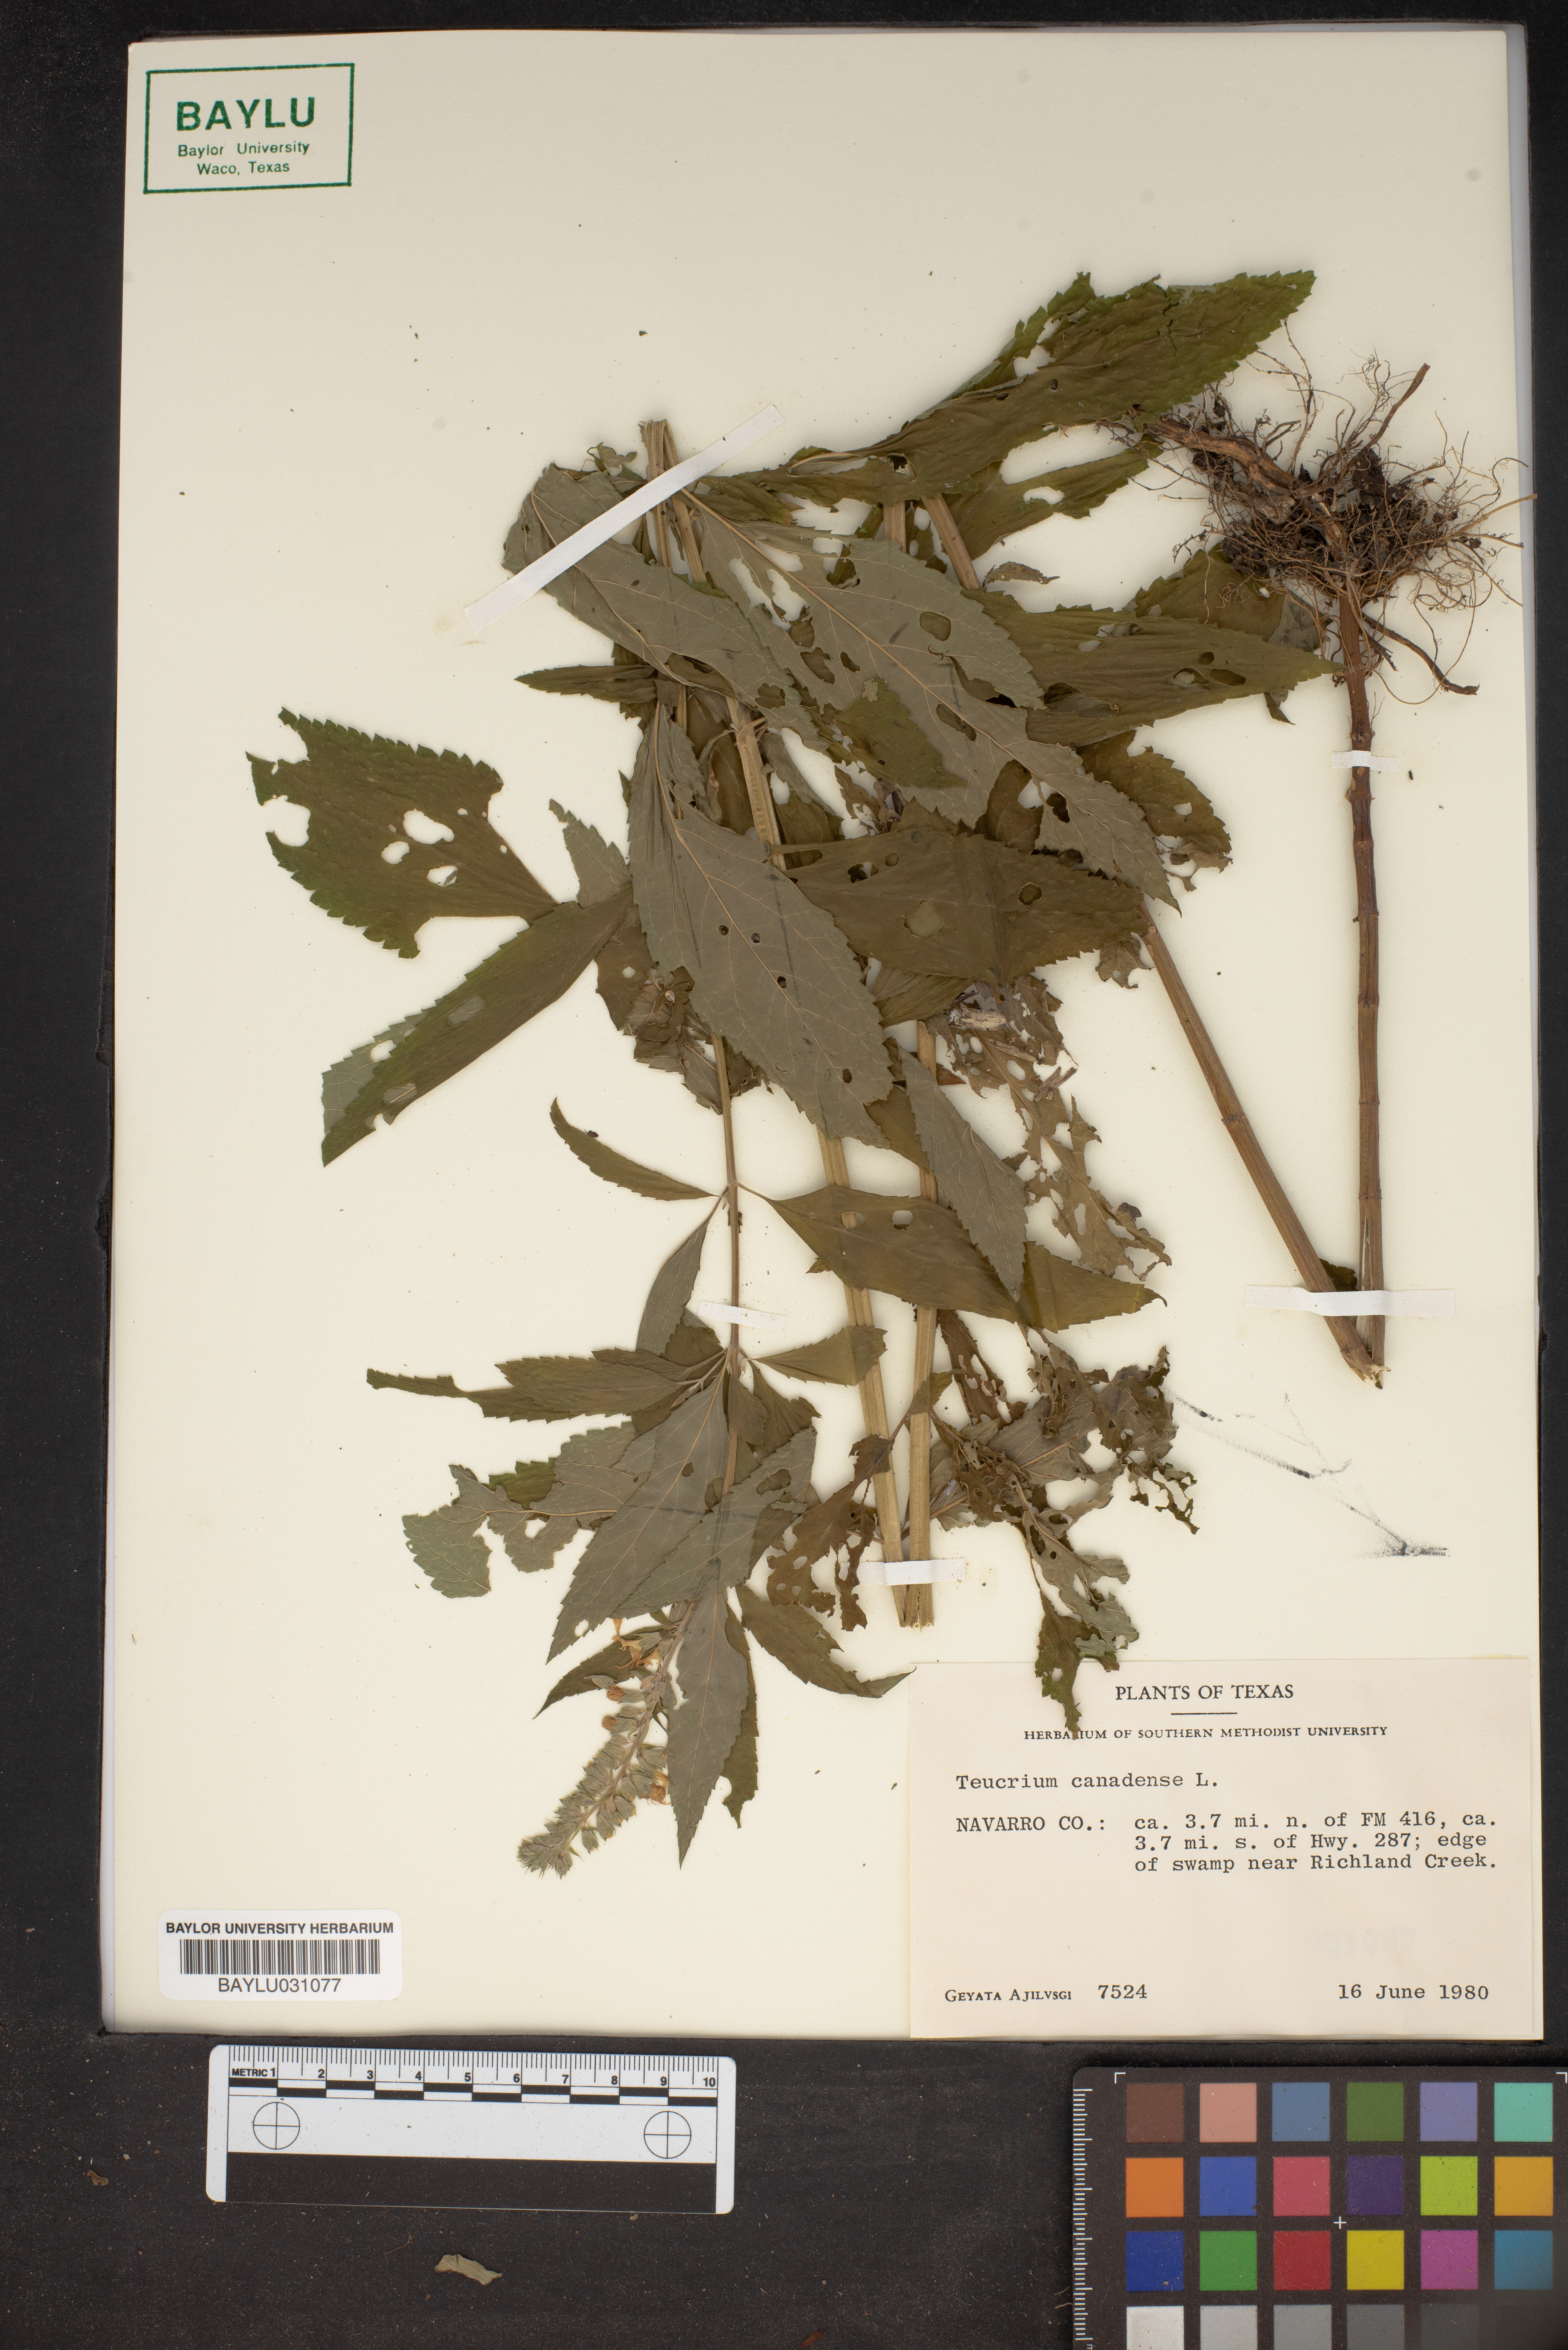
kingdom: Plantae
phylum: Tracheophyta
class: Magnoliopsida
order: Lamiales
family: Lamiaceae
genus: Teucrium
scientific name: Teucrium canadense
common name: American germander
